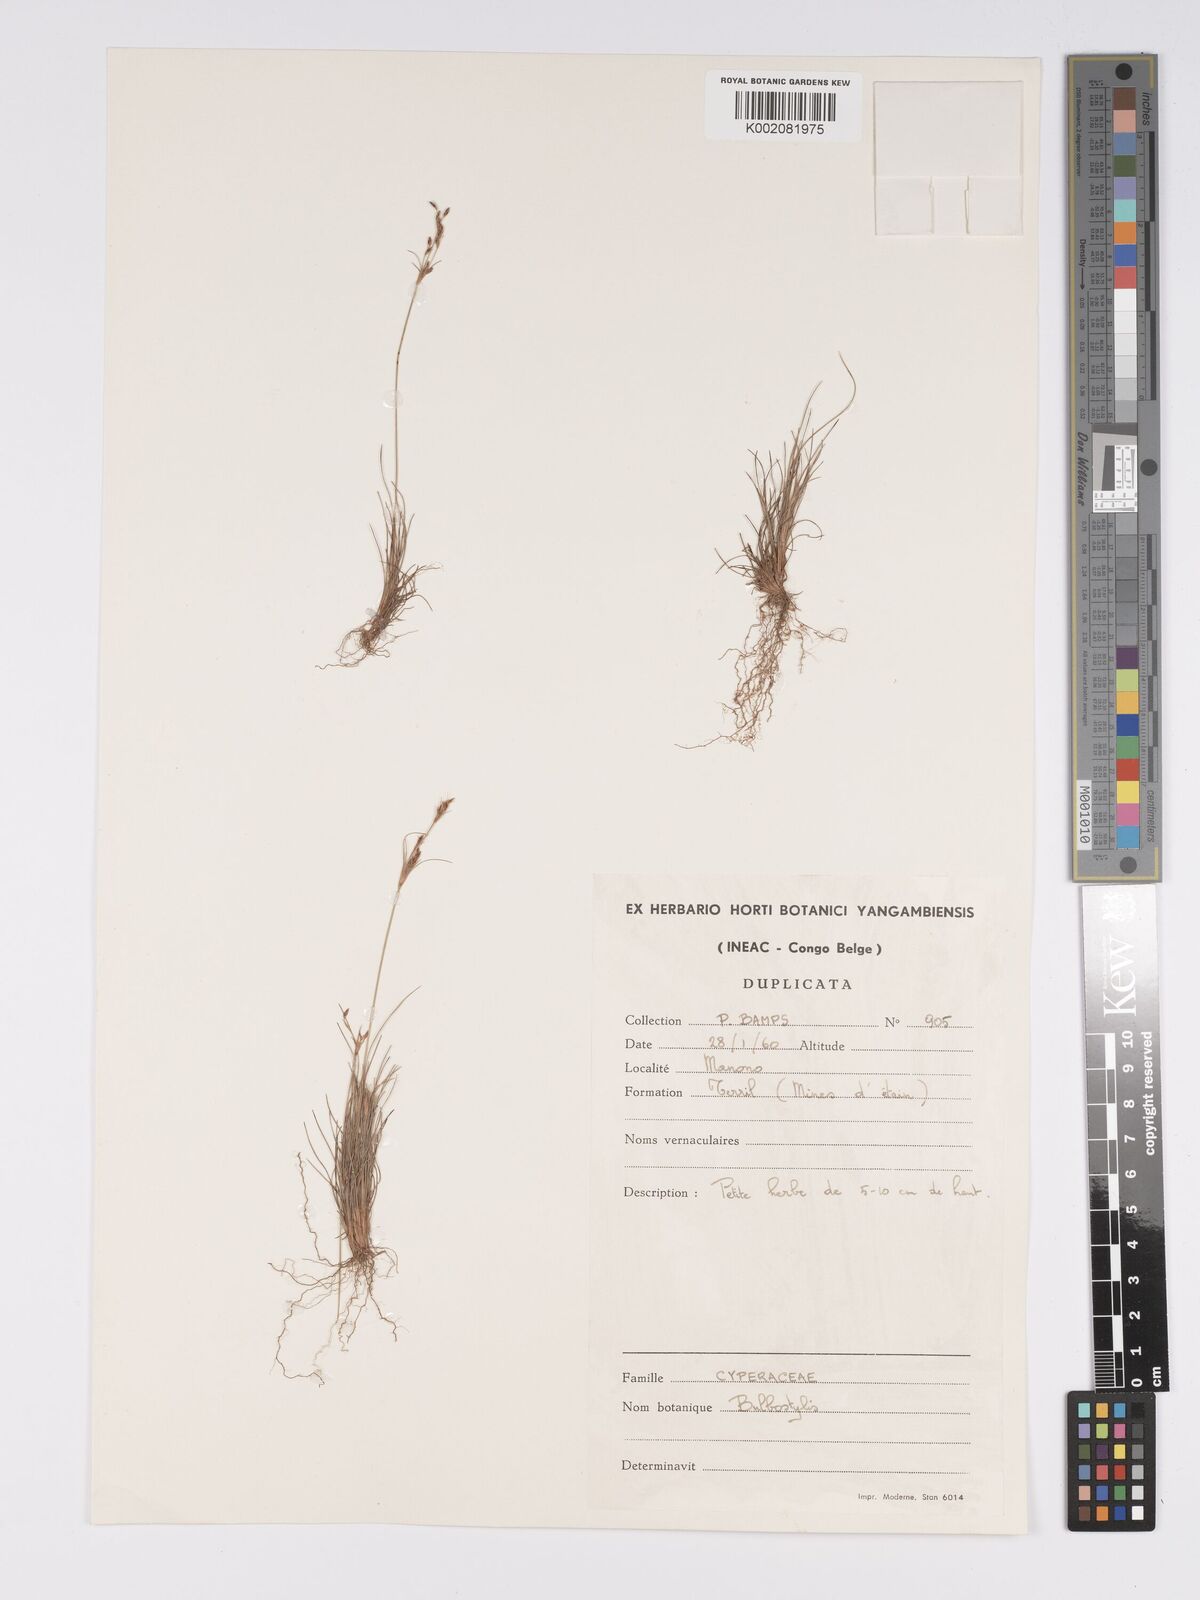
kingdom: Plantae
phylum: Tracheophyta
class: Liliopsida
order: Poales
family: Cyperaceae
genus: Bulbostylis
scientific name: Bulbostylis
